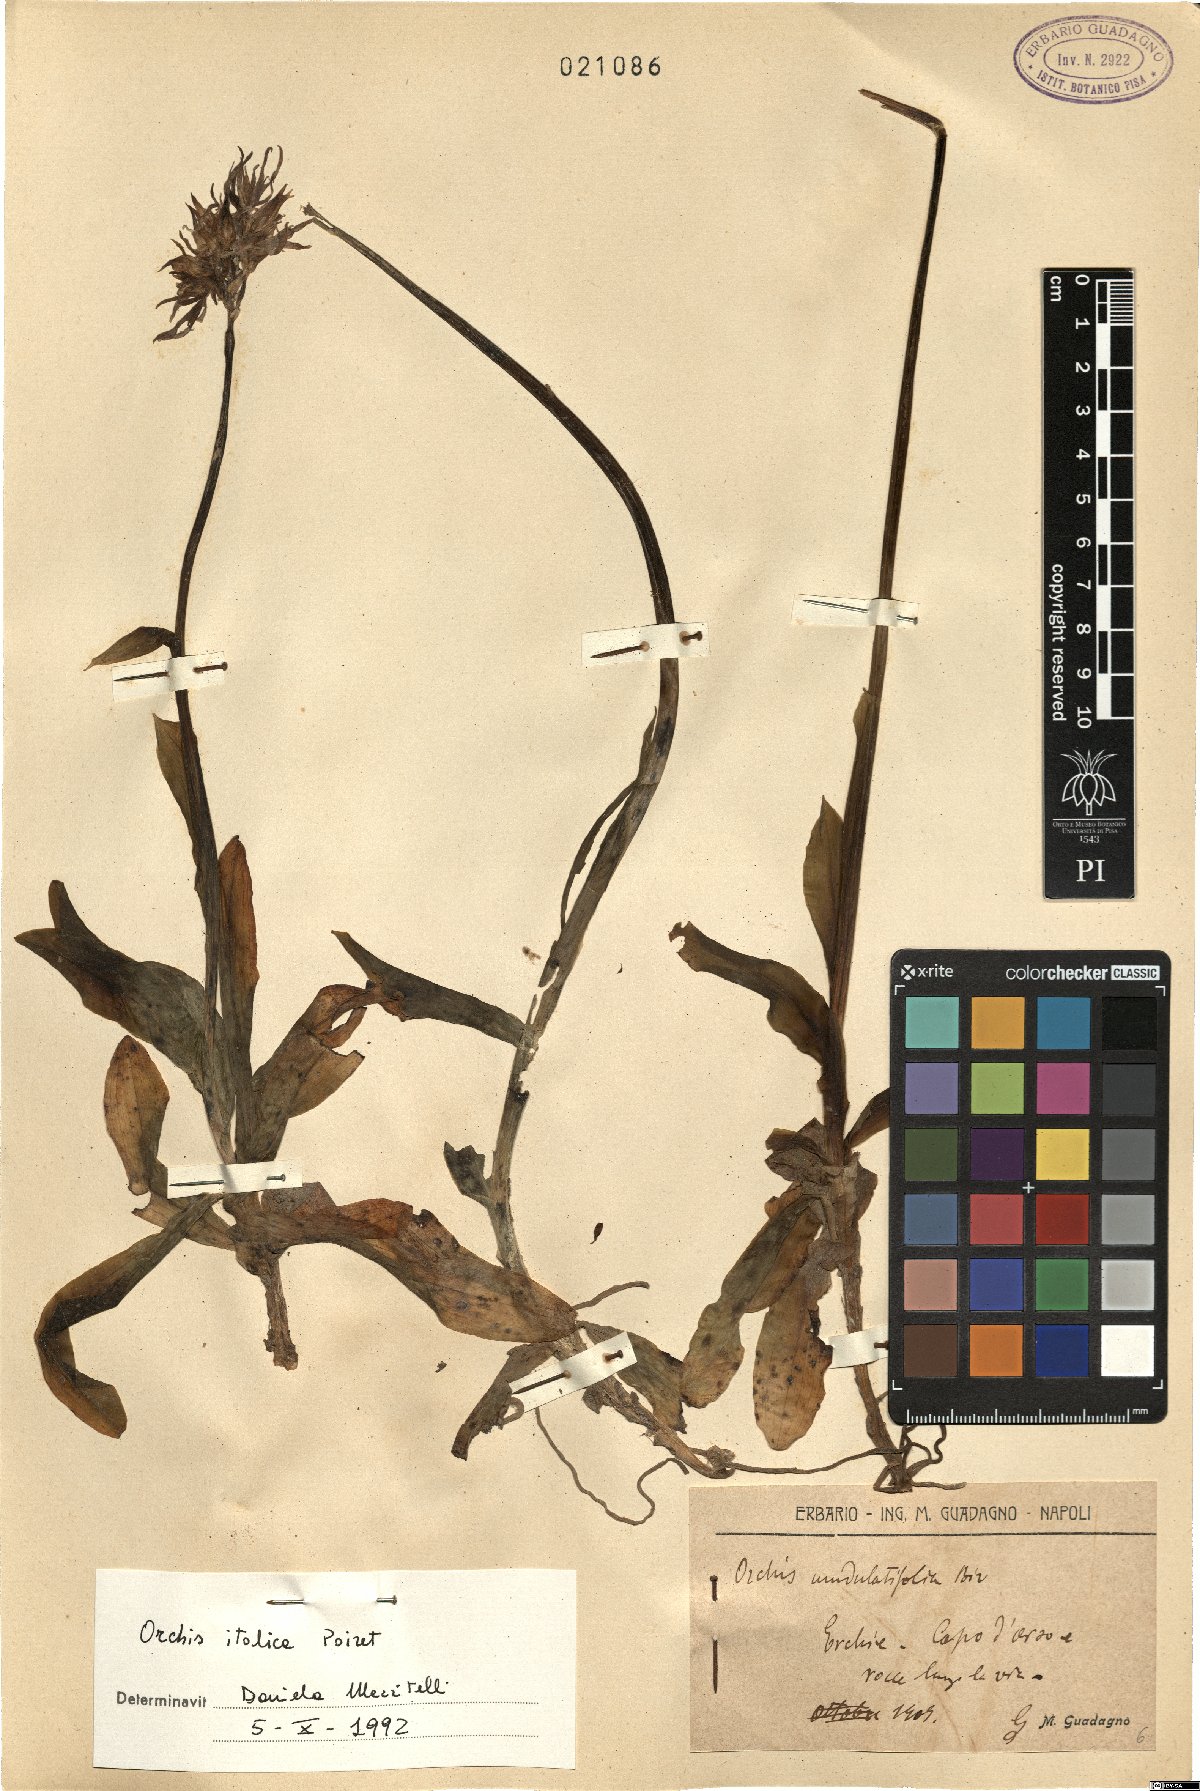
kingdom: Plantae
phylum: Tracheophyta
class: Liliopsida
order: Asparagales
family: Orchidaceae
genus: Orchis
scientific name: Orchis italica
